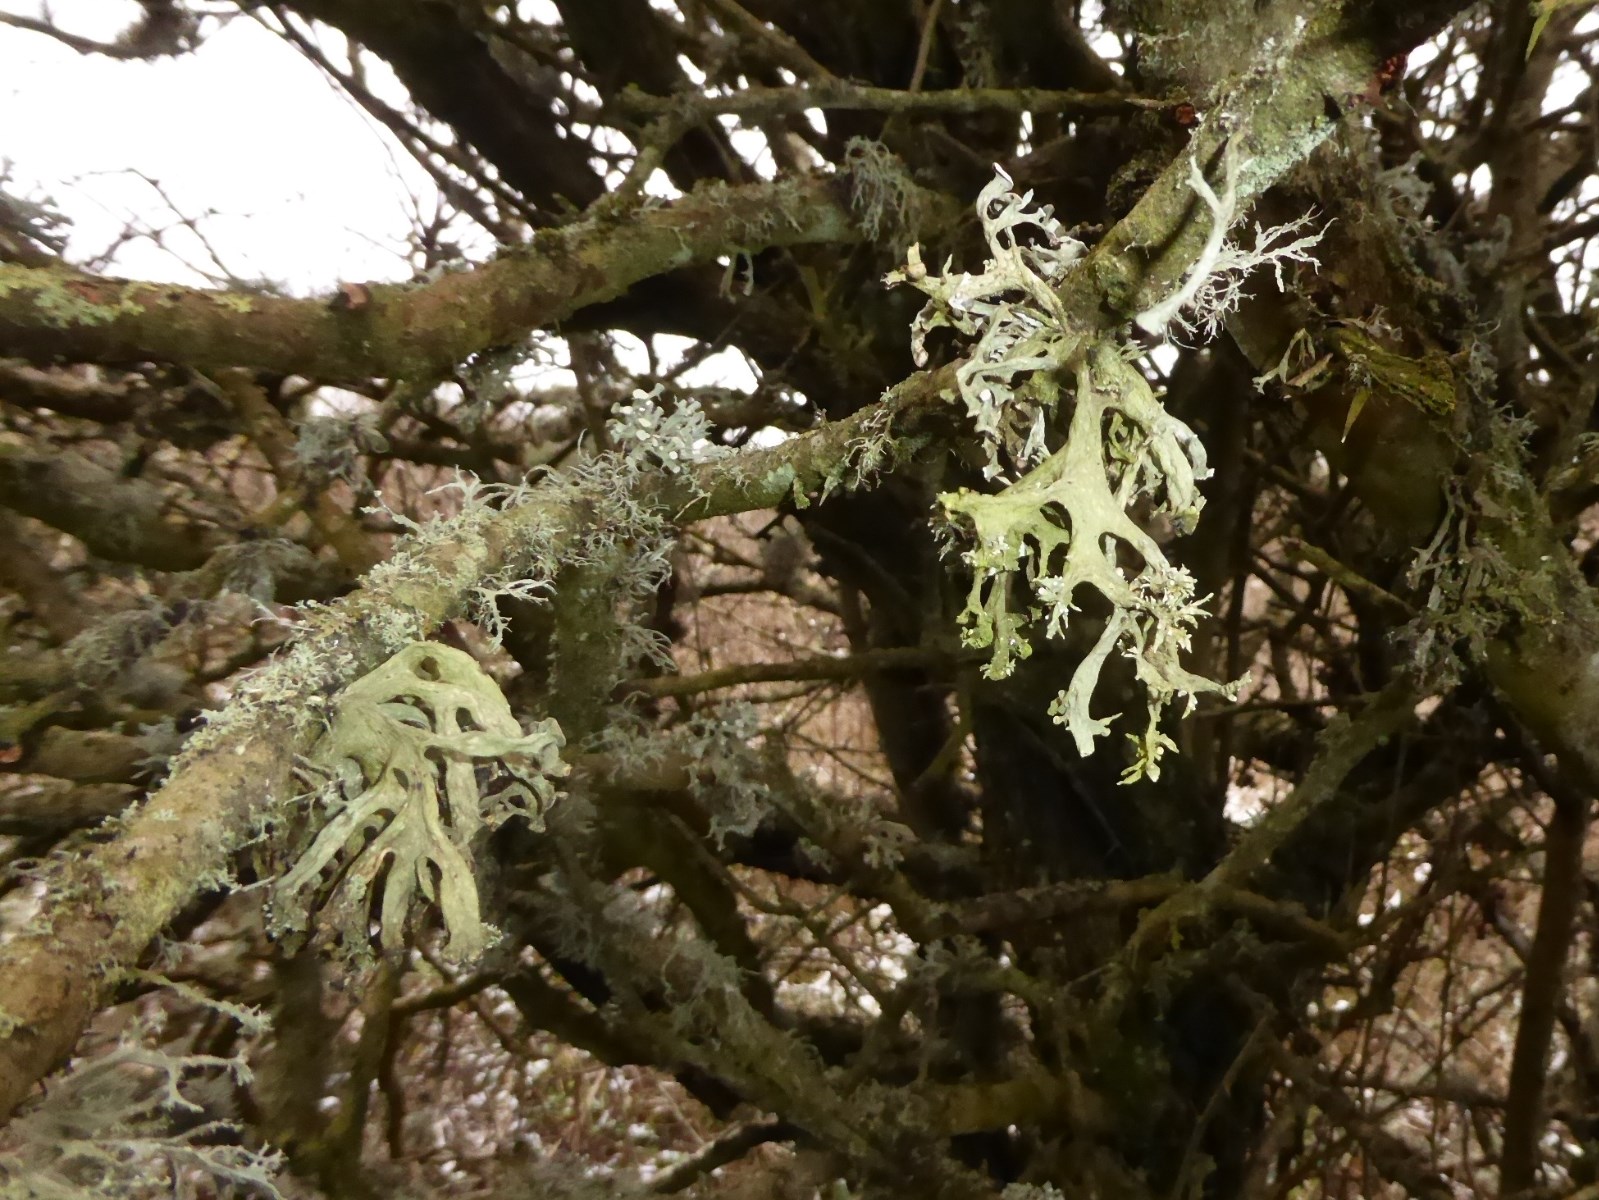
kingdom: Fungi
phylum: Ascomycota
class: Lecanoromycetes
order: Lecanorales
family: Ramalinaceae
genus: Ramalina
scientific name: Ramalina fastigiata
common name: tue-grenlav
